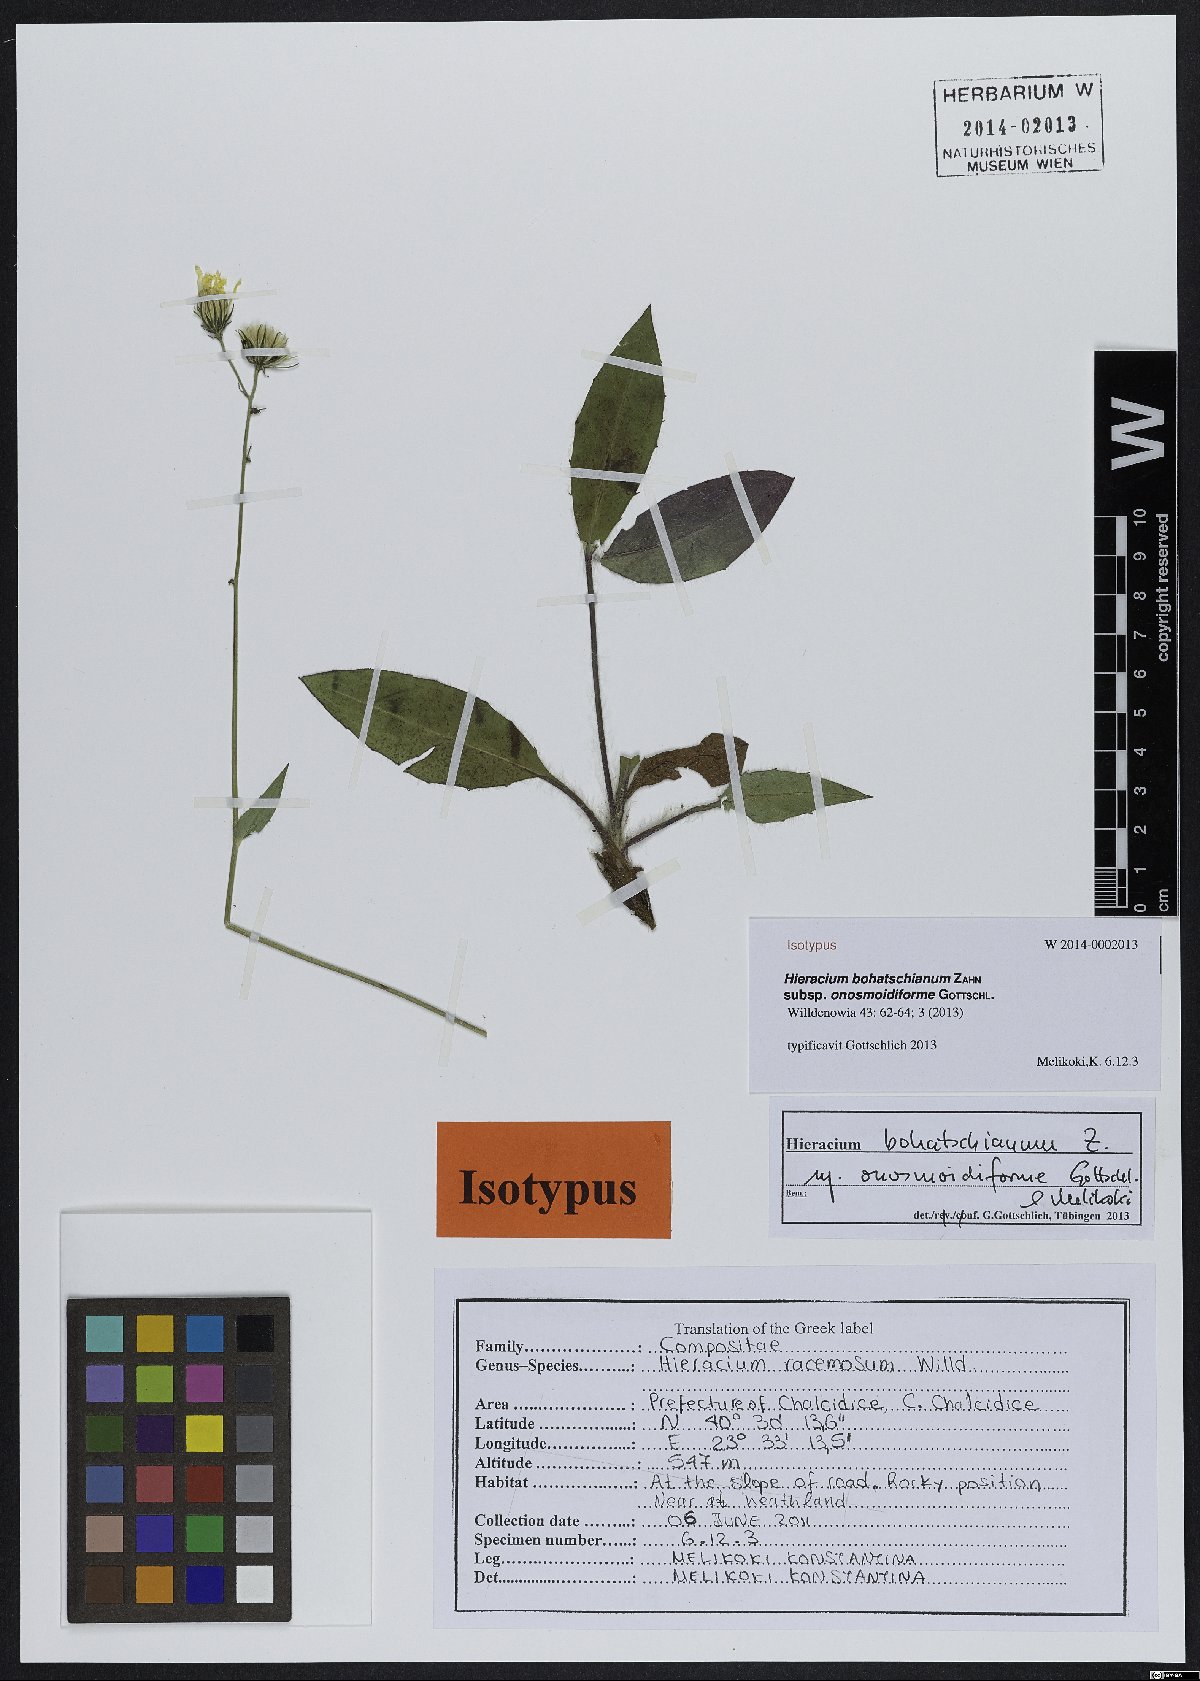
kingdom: Plantae
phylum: Tracheophyta
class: Magnoliopsida
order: Asterales
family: Asteraceae
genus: Hieracium
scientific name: Hieracium bohatschianum
